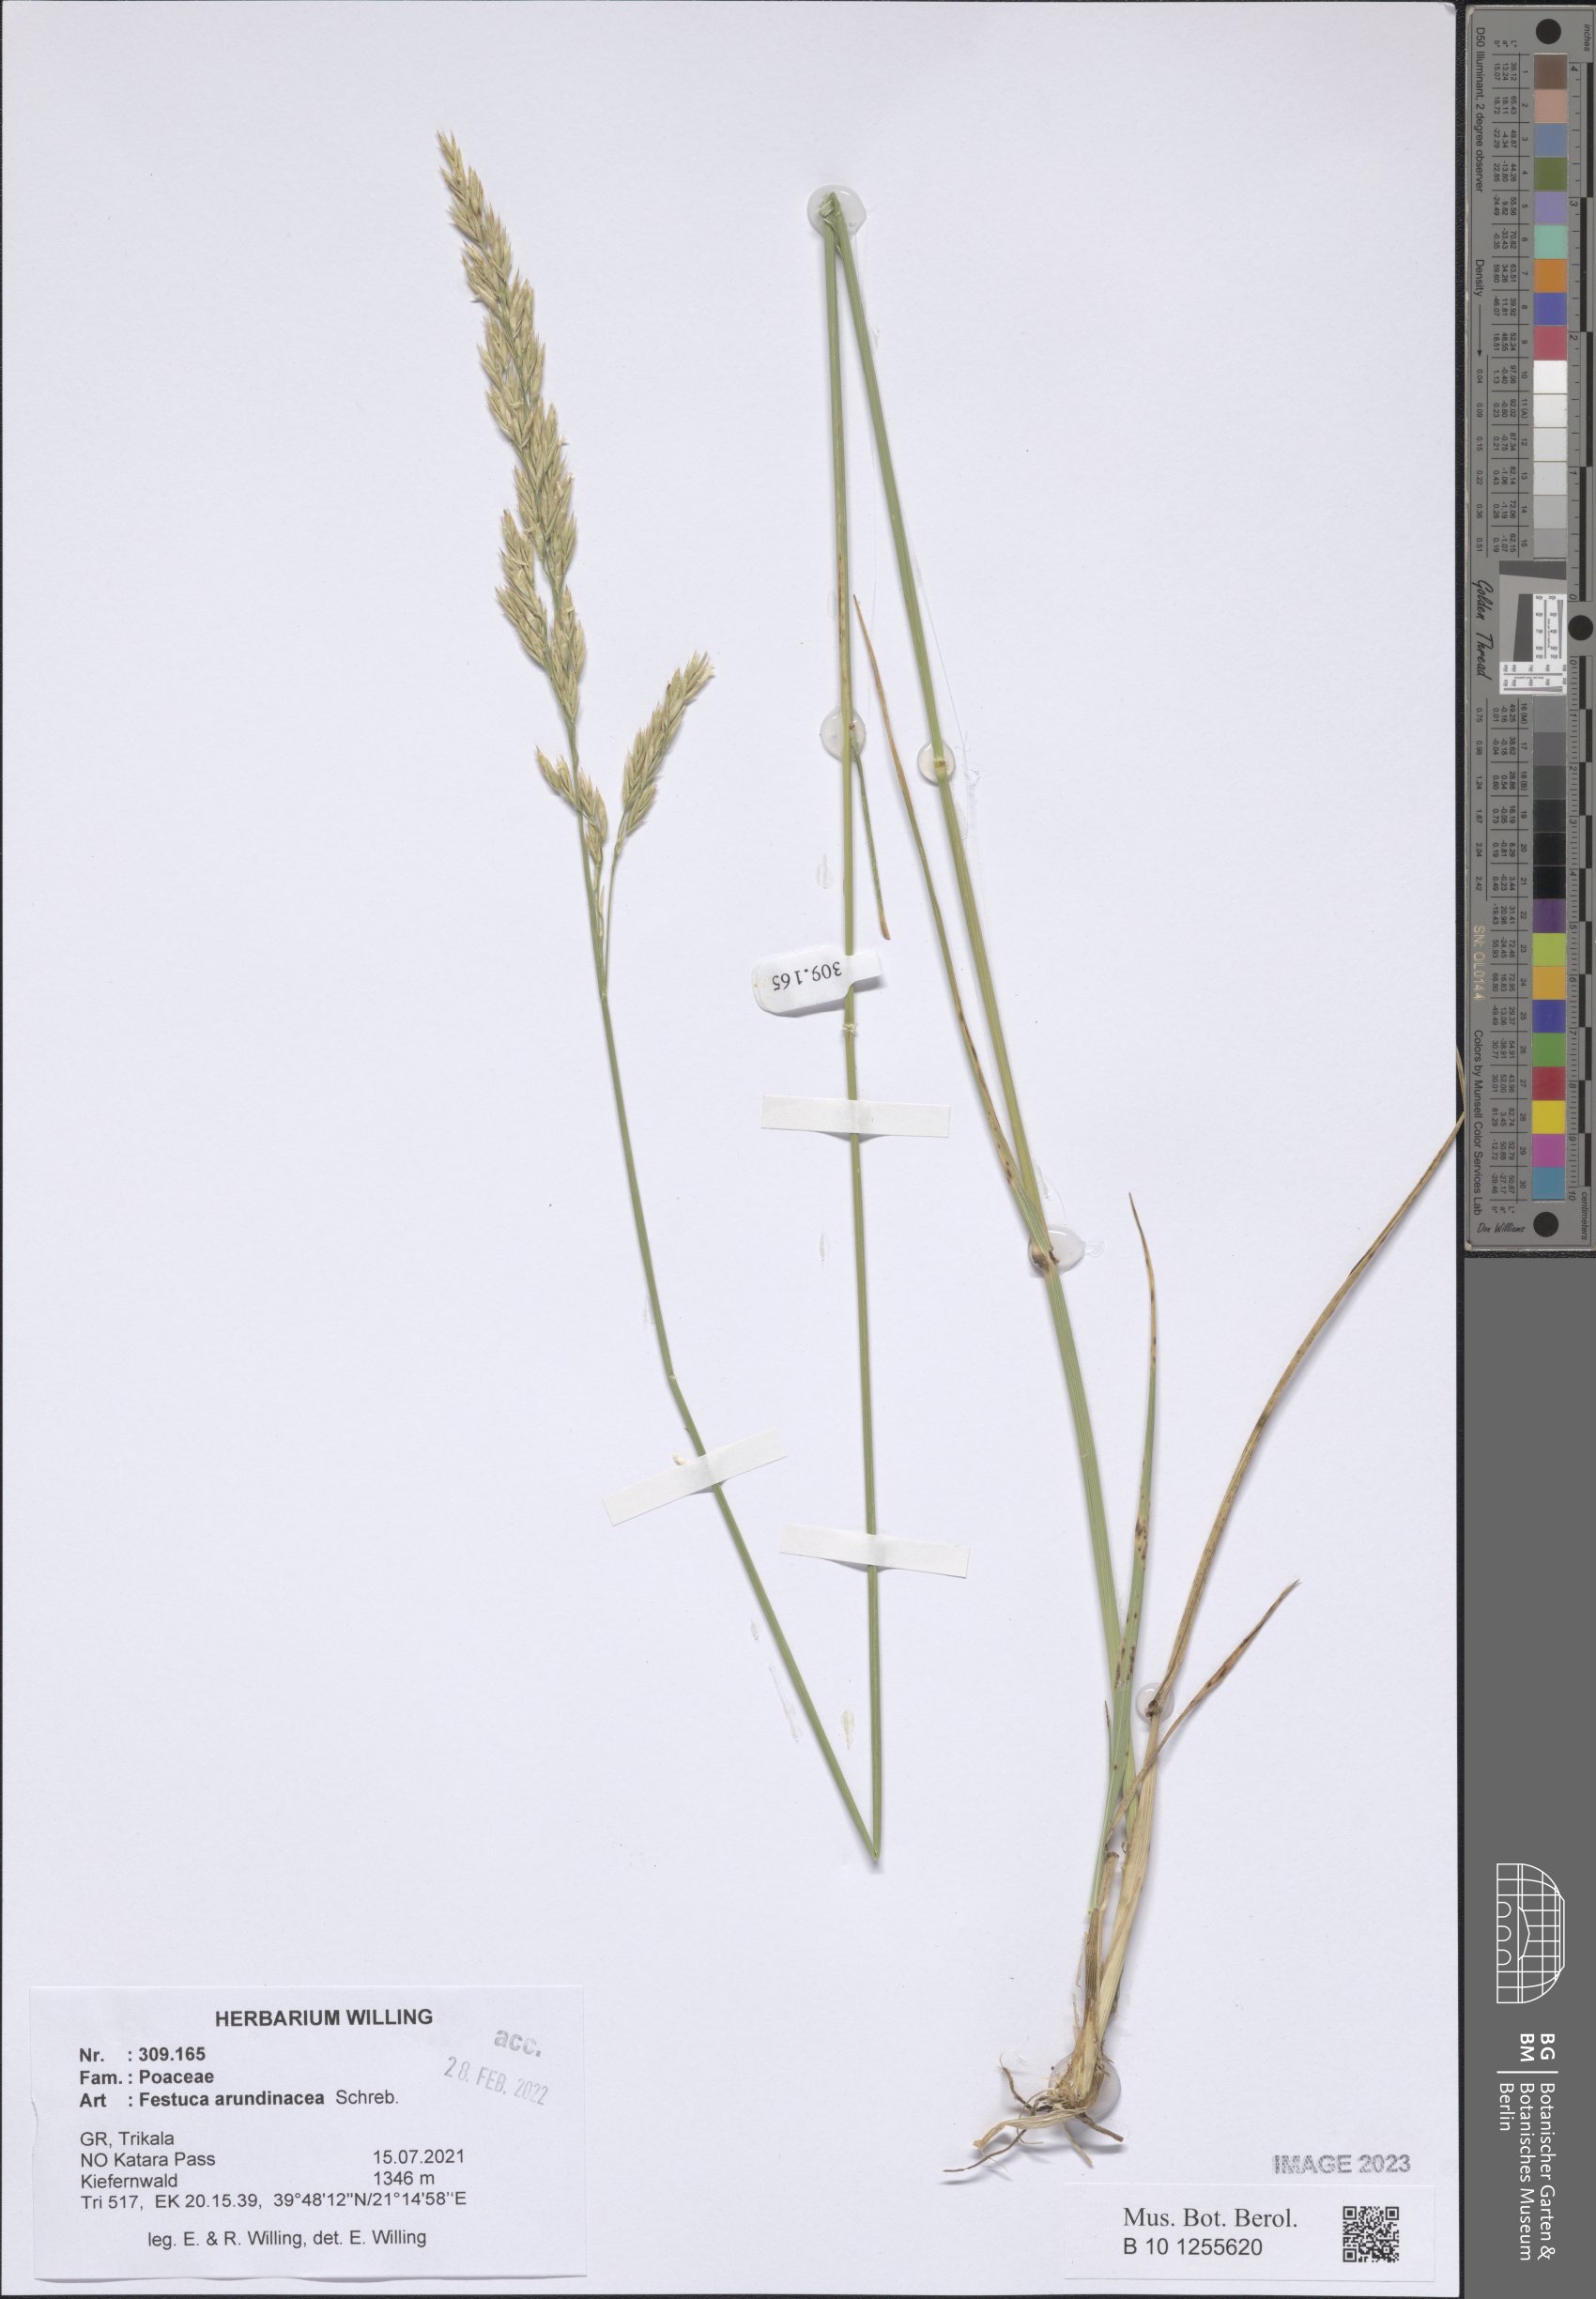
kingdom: Plantae
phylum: Tracheophyta
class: Liliopsida
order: Poales
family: Poaceae
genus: Lolium
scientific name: Lolium arundinaceum
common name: Reed fescue
